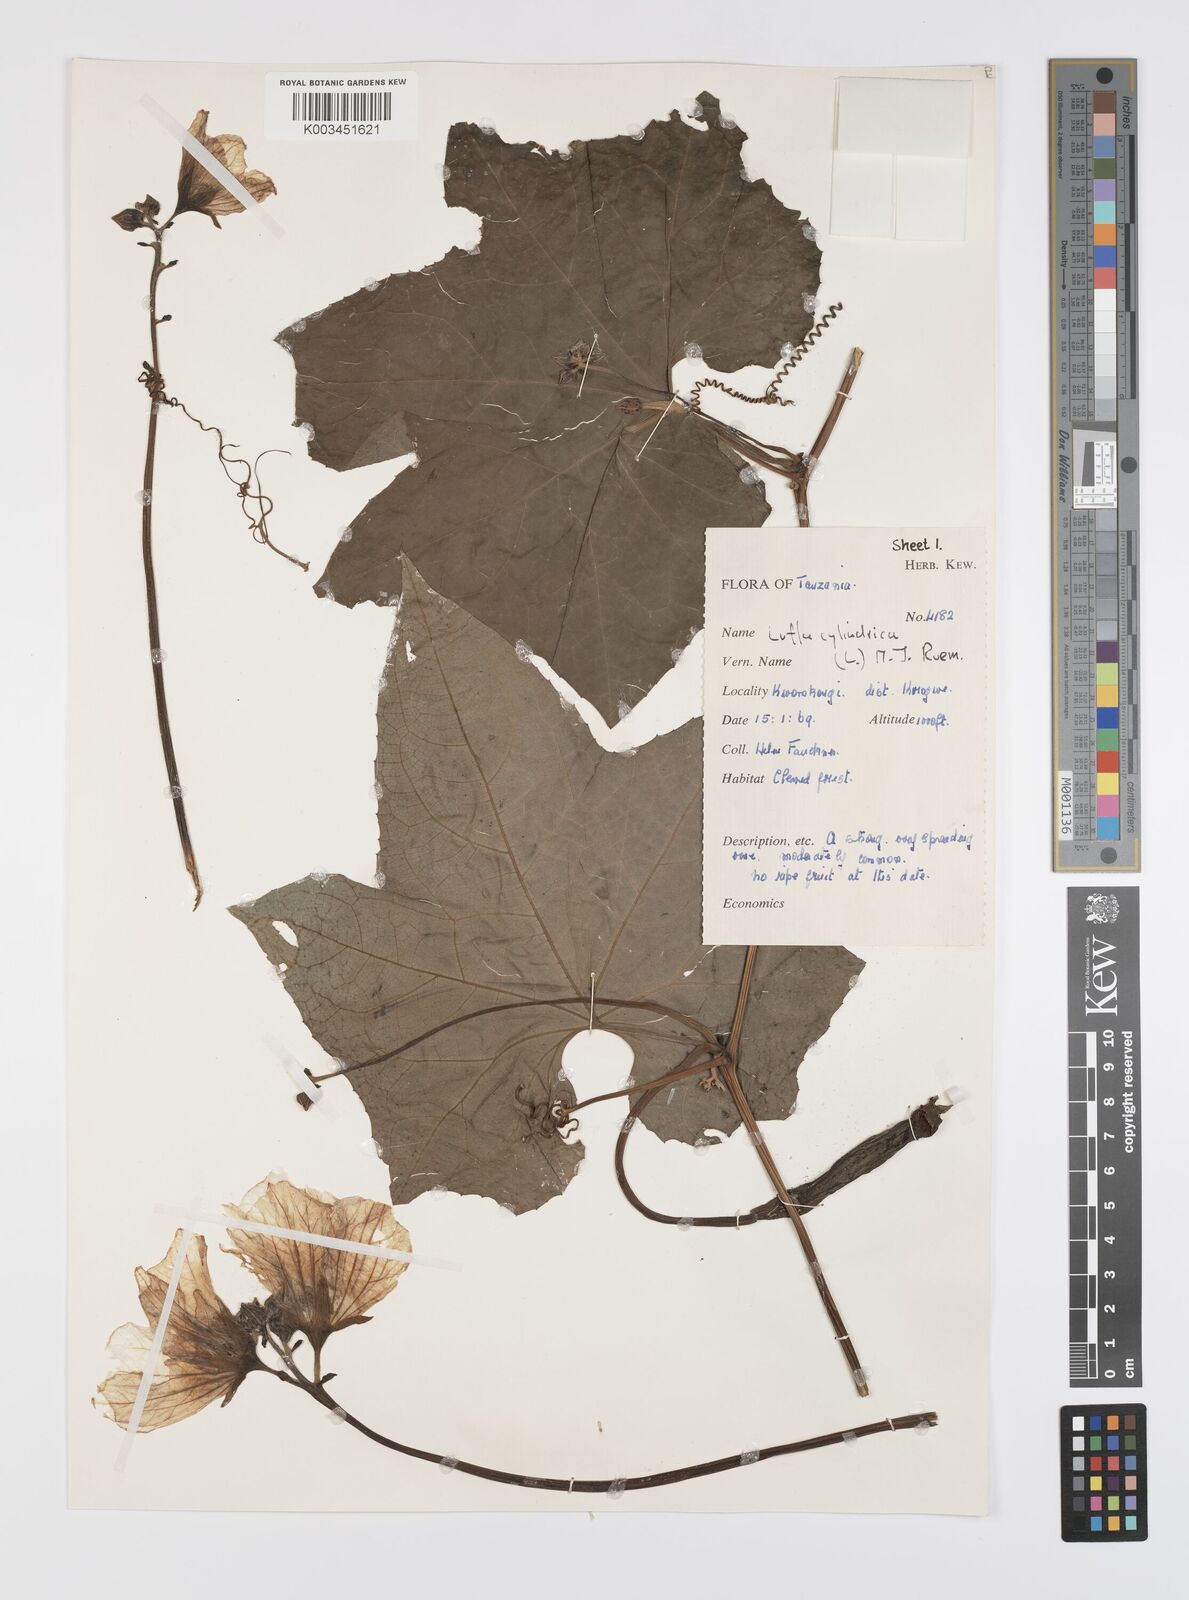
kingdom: Plantae
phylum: Tracheophyta
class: Magnoliopsida
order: Cucurbitales
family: Cucurbitaceae
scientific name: Cucurbitaceae
